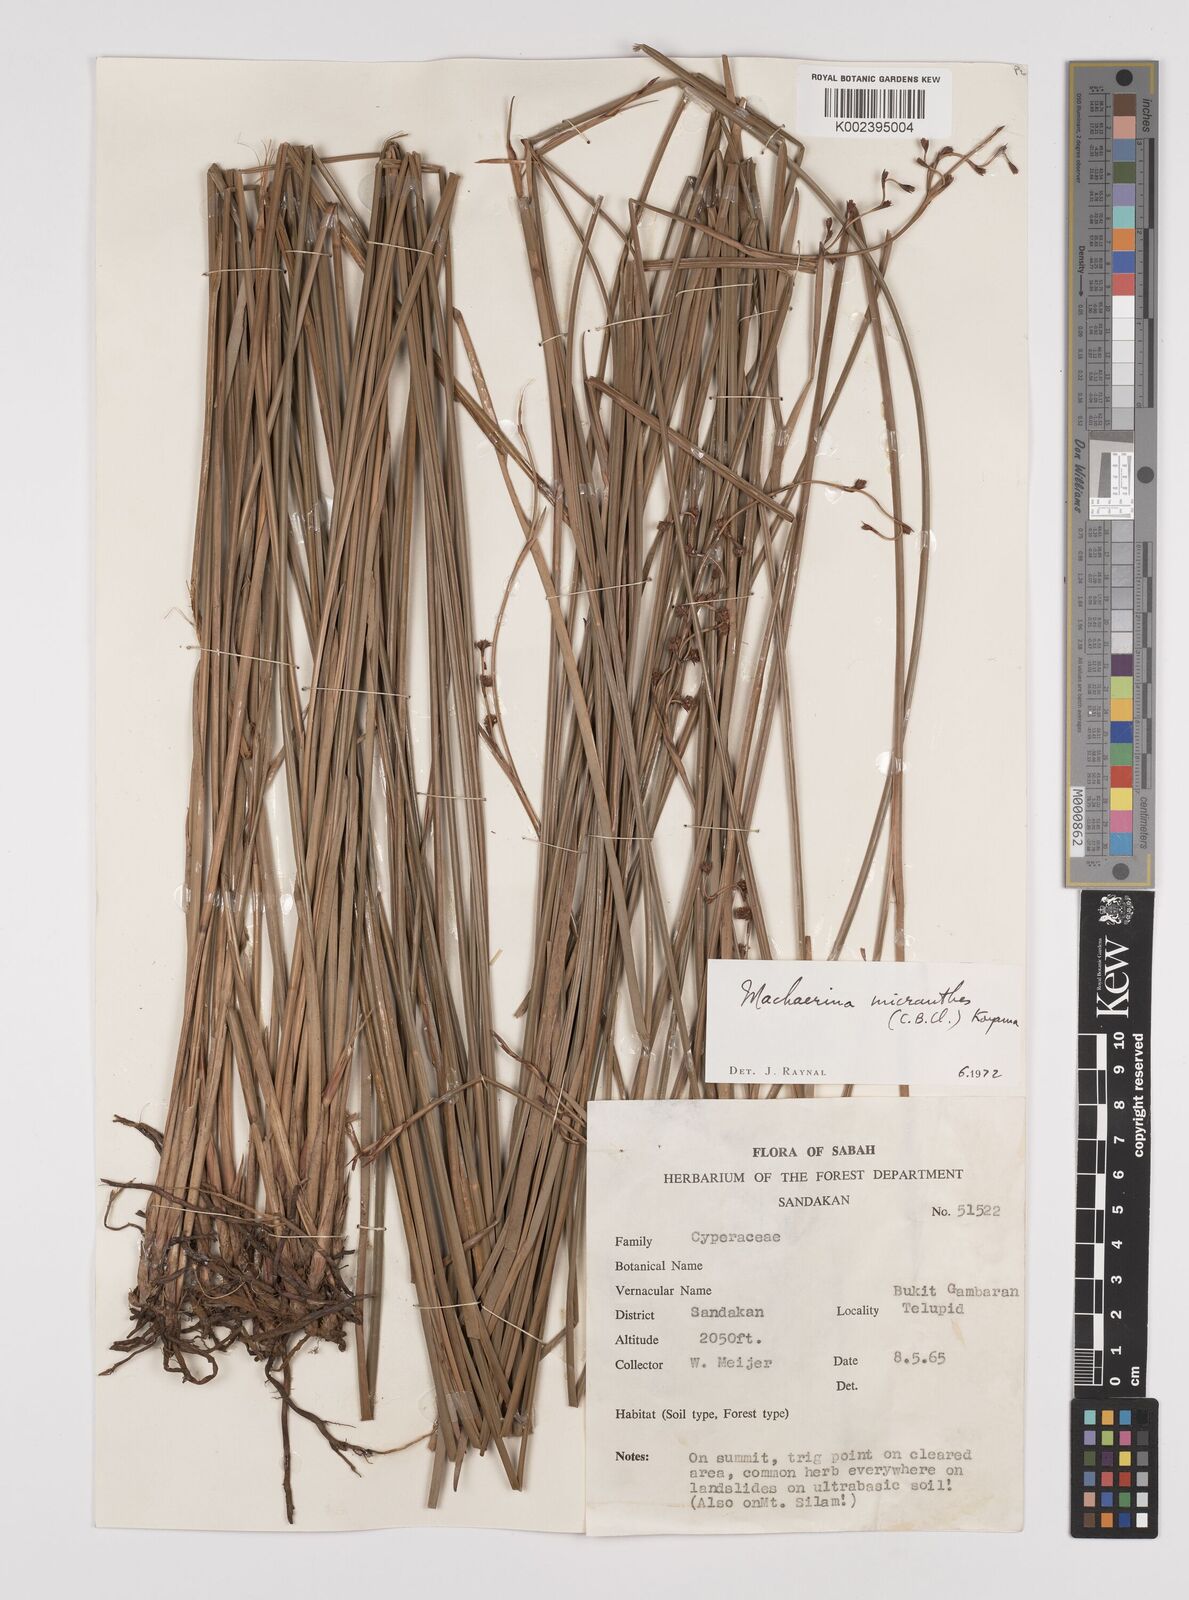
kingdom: Plantae
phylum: Tracheophyta
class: Liliopsida
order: Poales
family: Cyperaceae
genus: Machaerina
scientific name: Machaerina disticha
